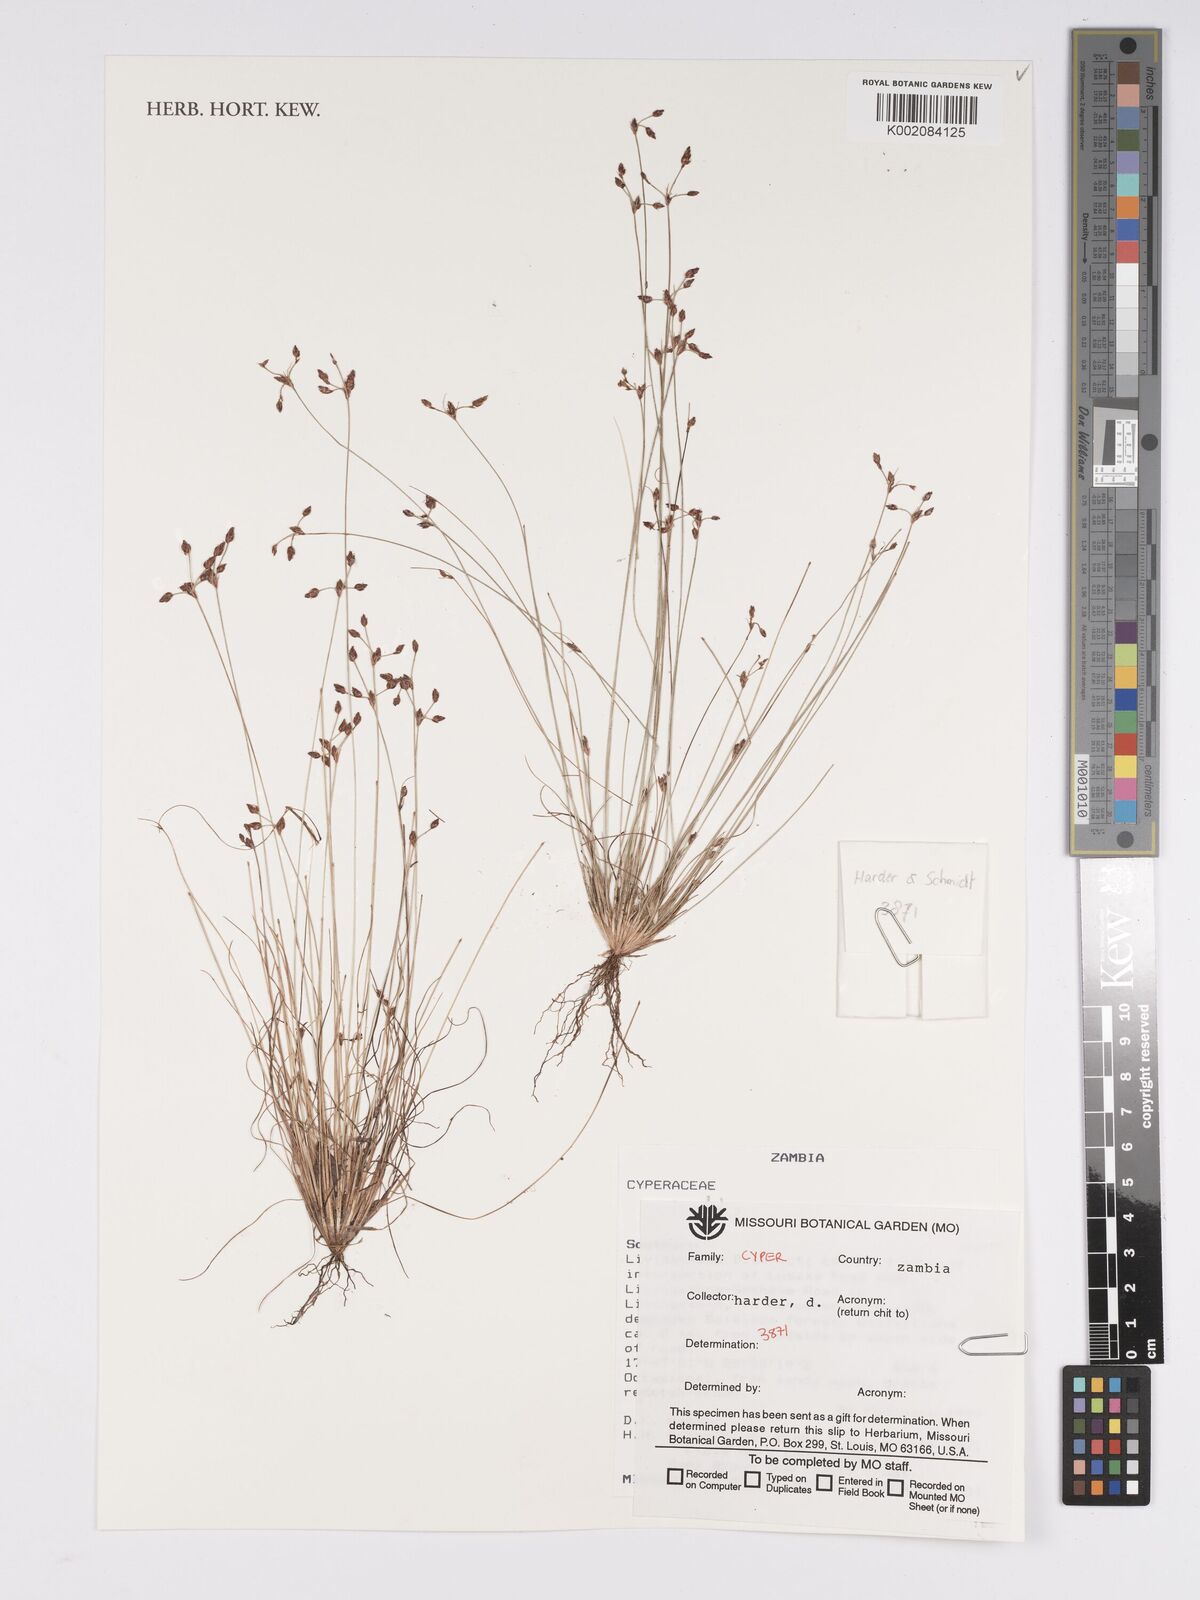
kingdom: Plantae
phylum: Tracheophyta
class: Liliopsida
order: Poales
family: Cyperaceae
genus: Bulbostylis
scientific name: Bulbostylis
